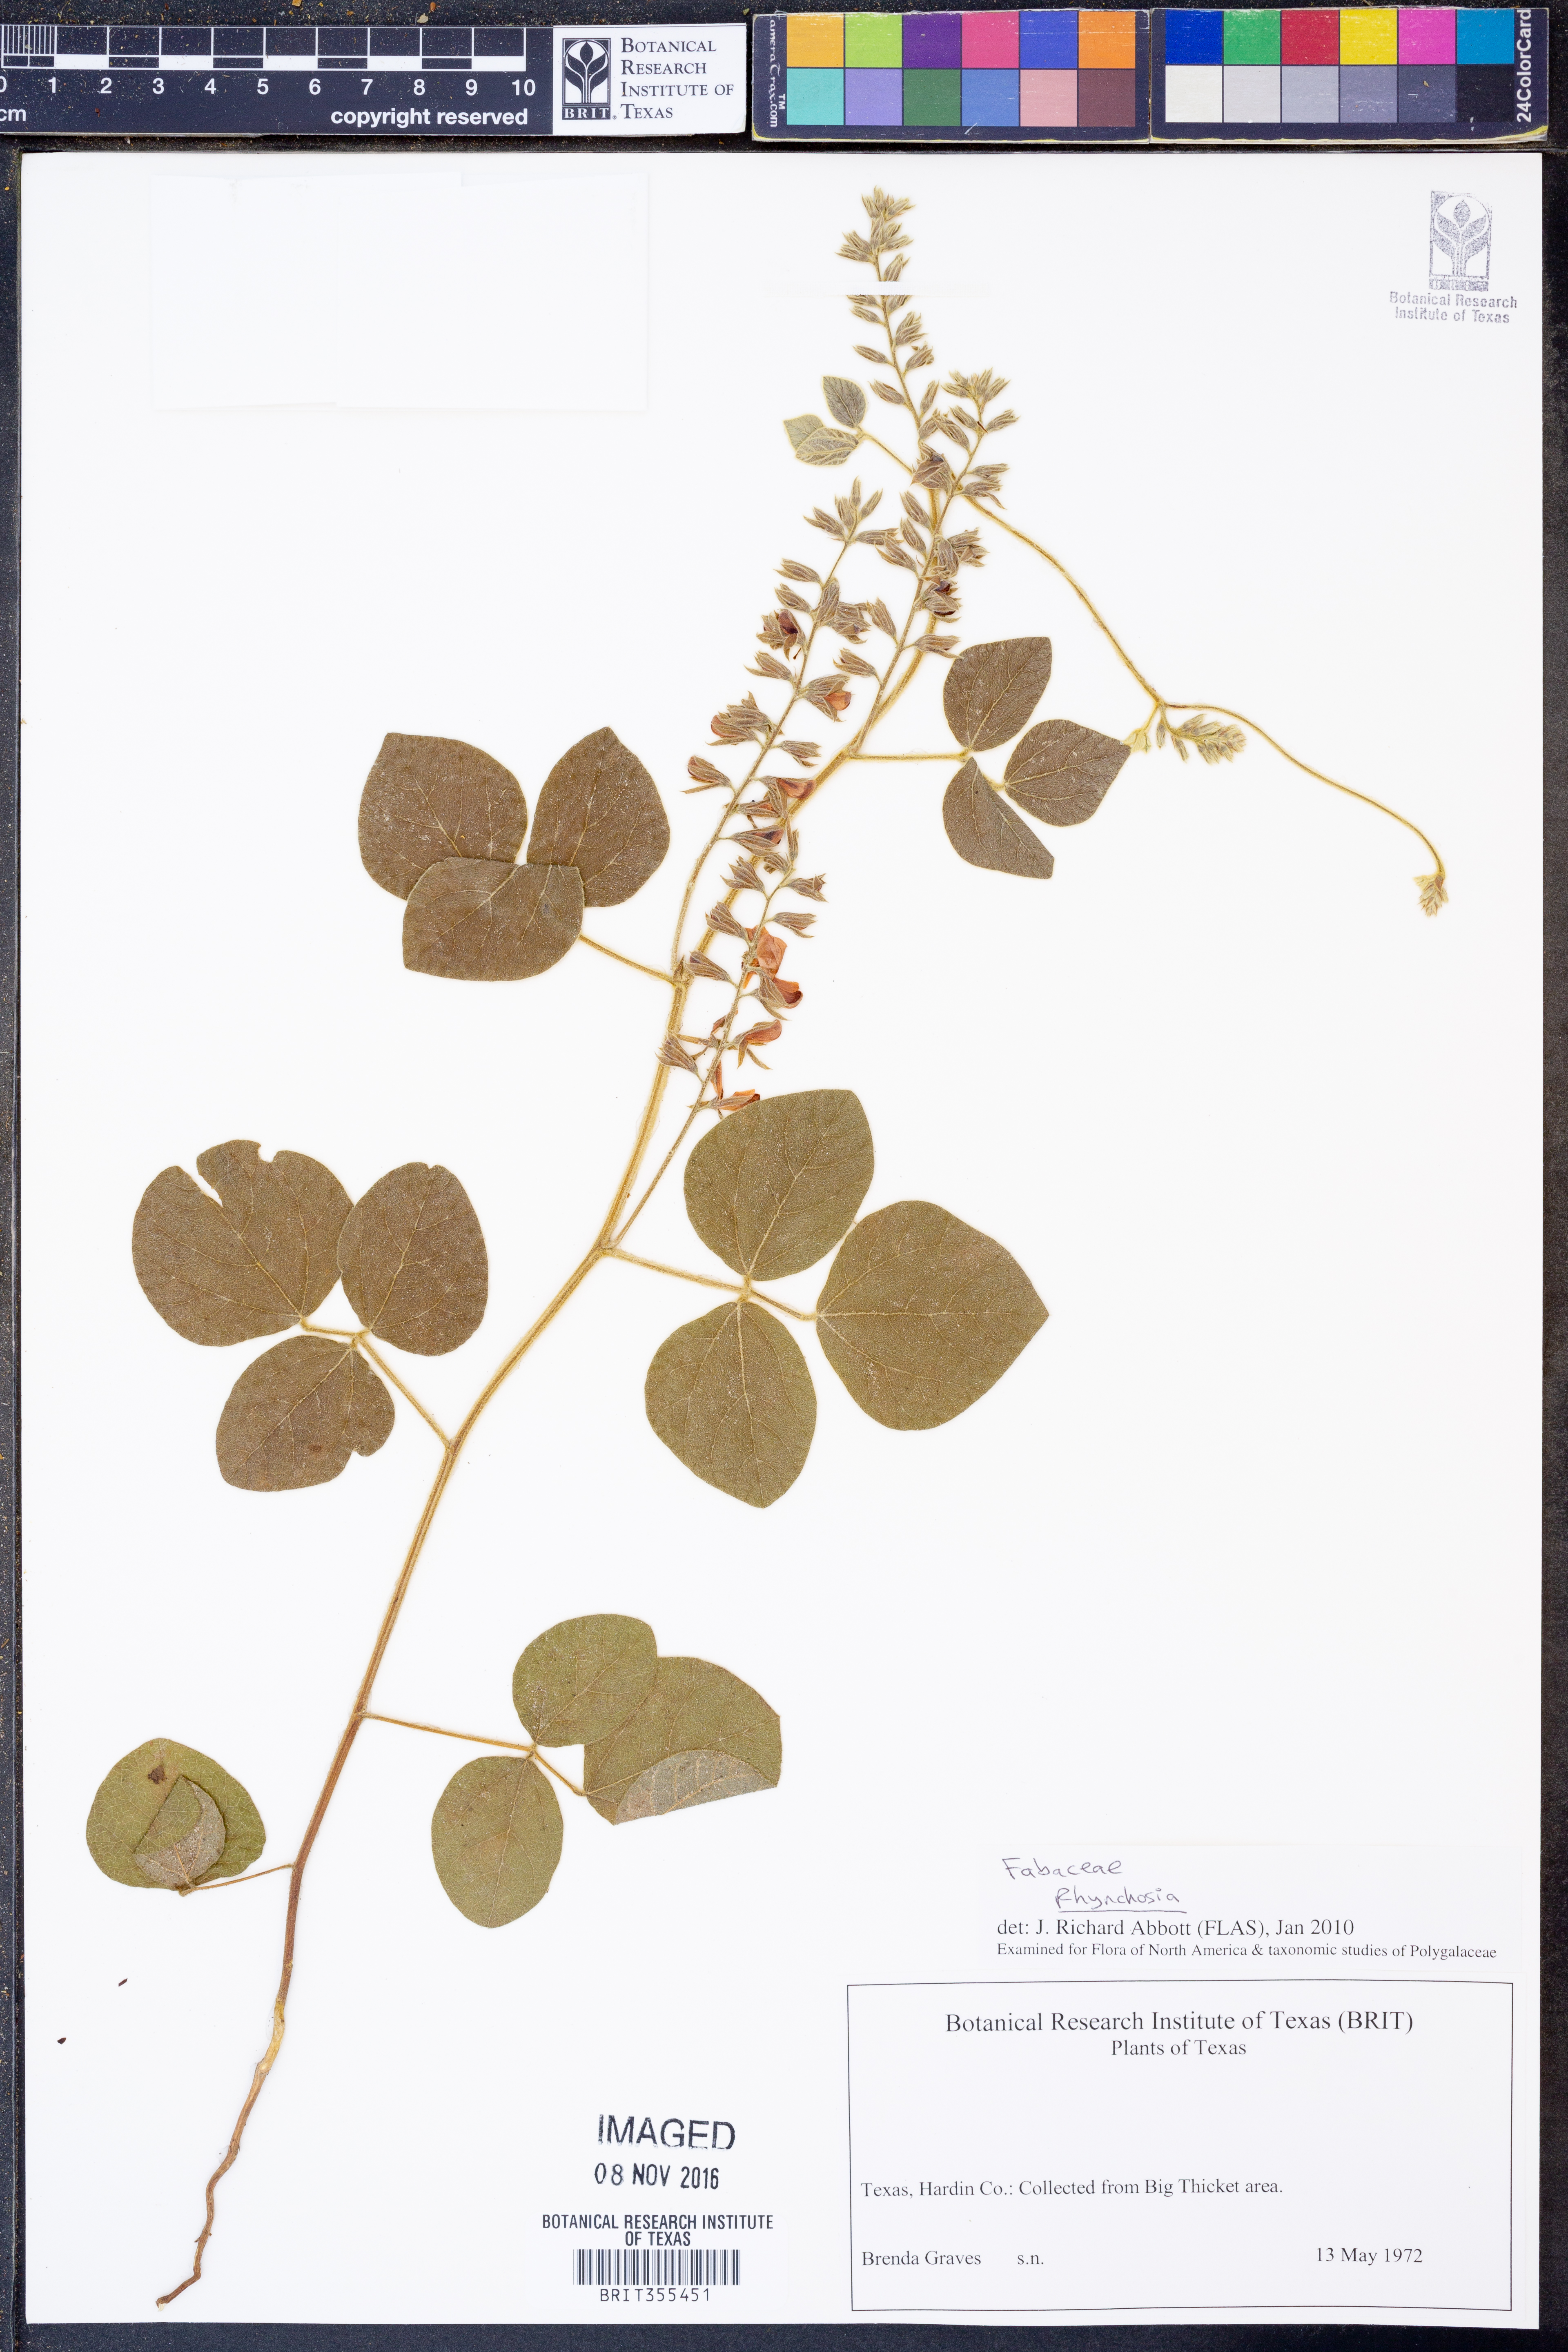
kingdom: Plantae
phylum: Tracheophyta
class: Magnoliopsida
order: Fabales
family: Fabaceae
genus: Rhynchosia
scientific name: Rhynchosia
